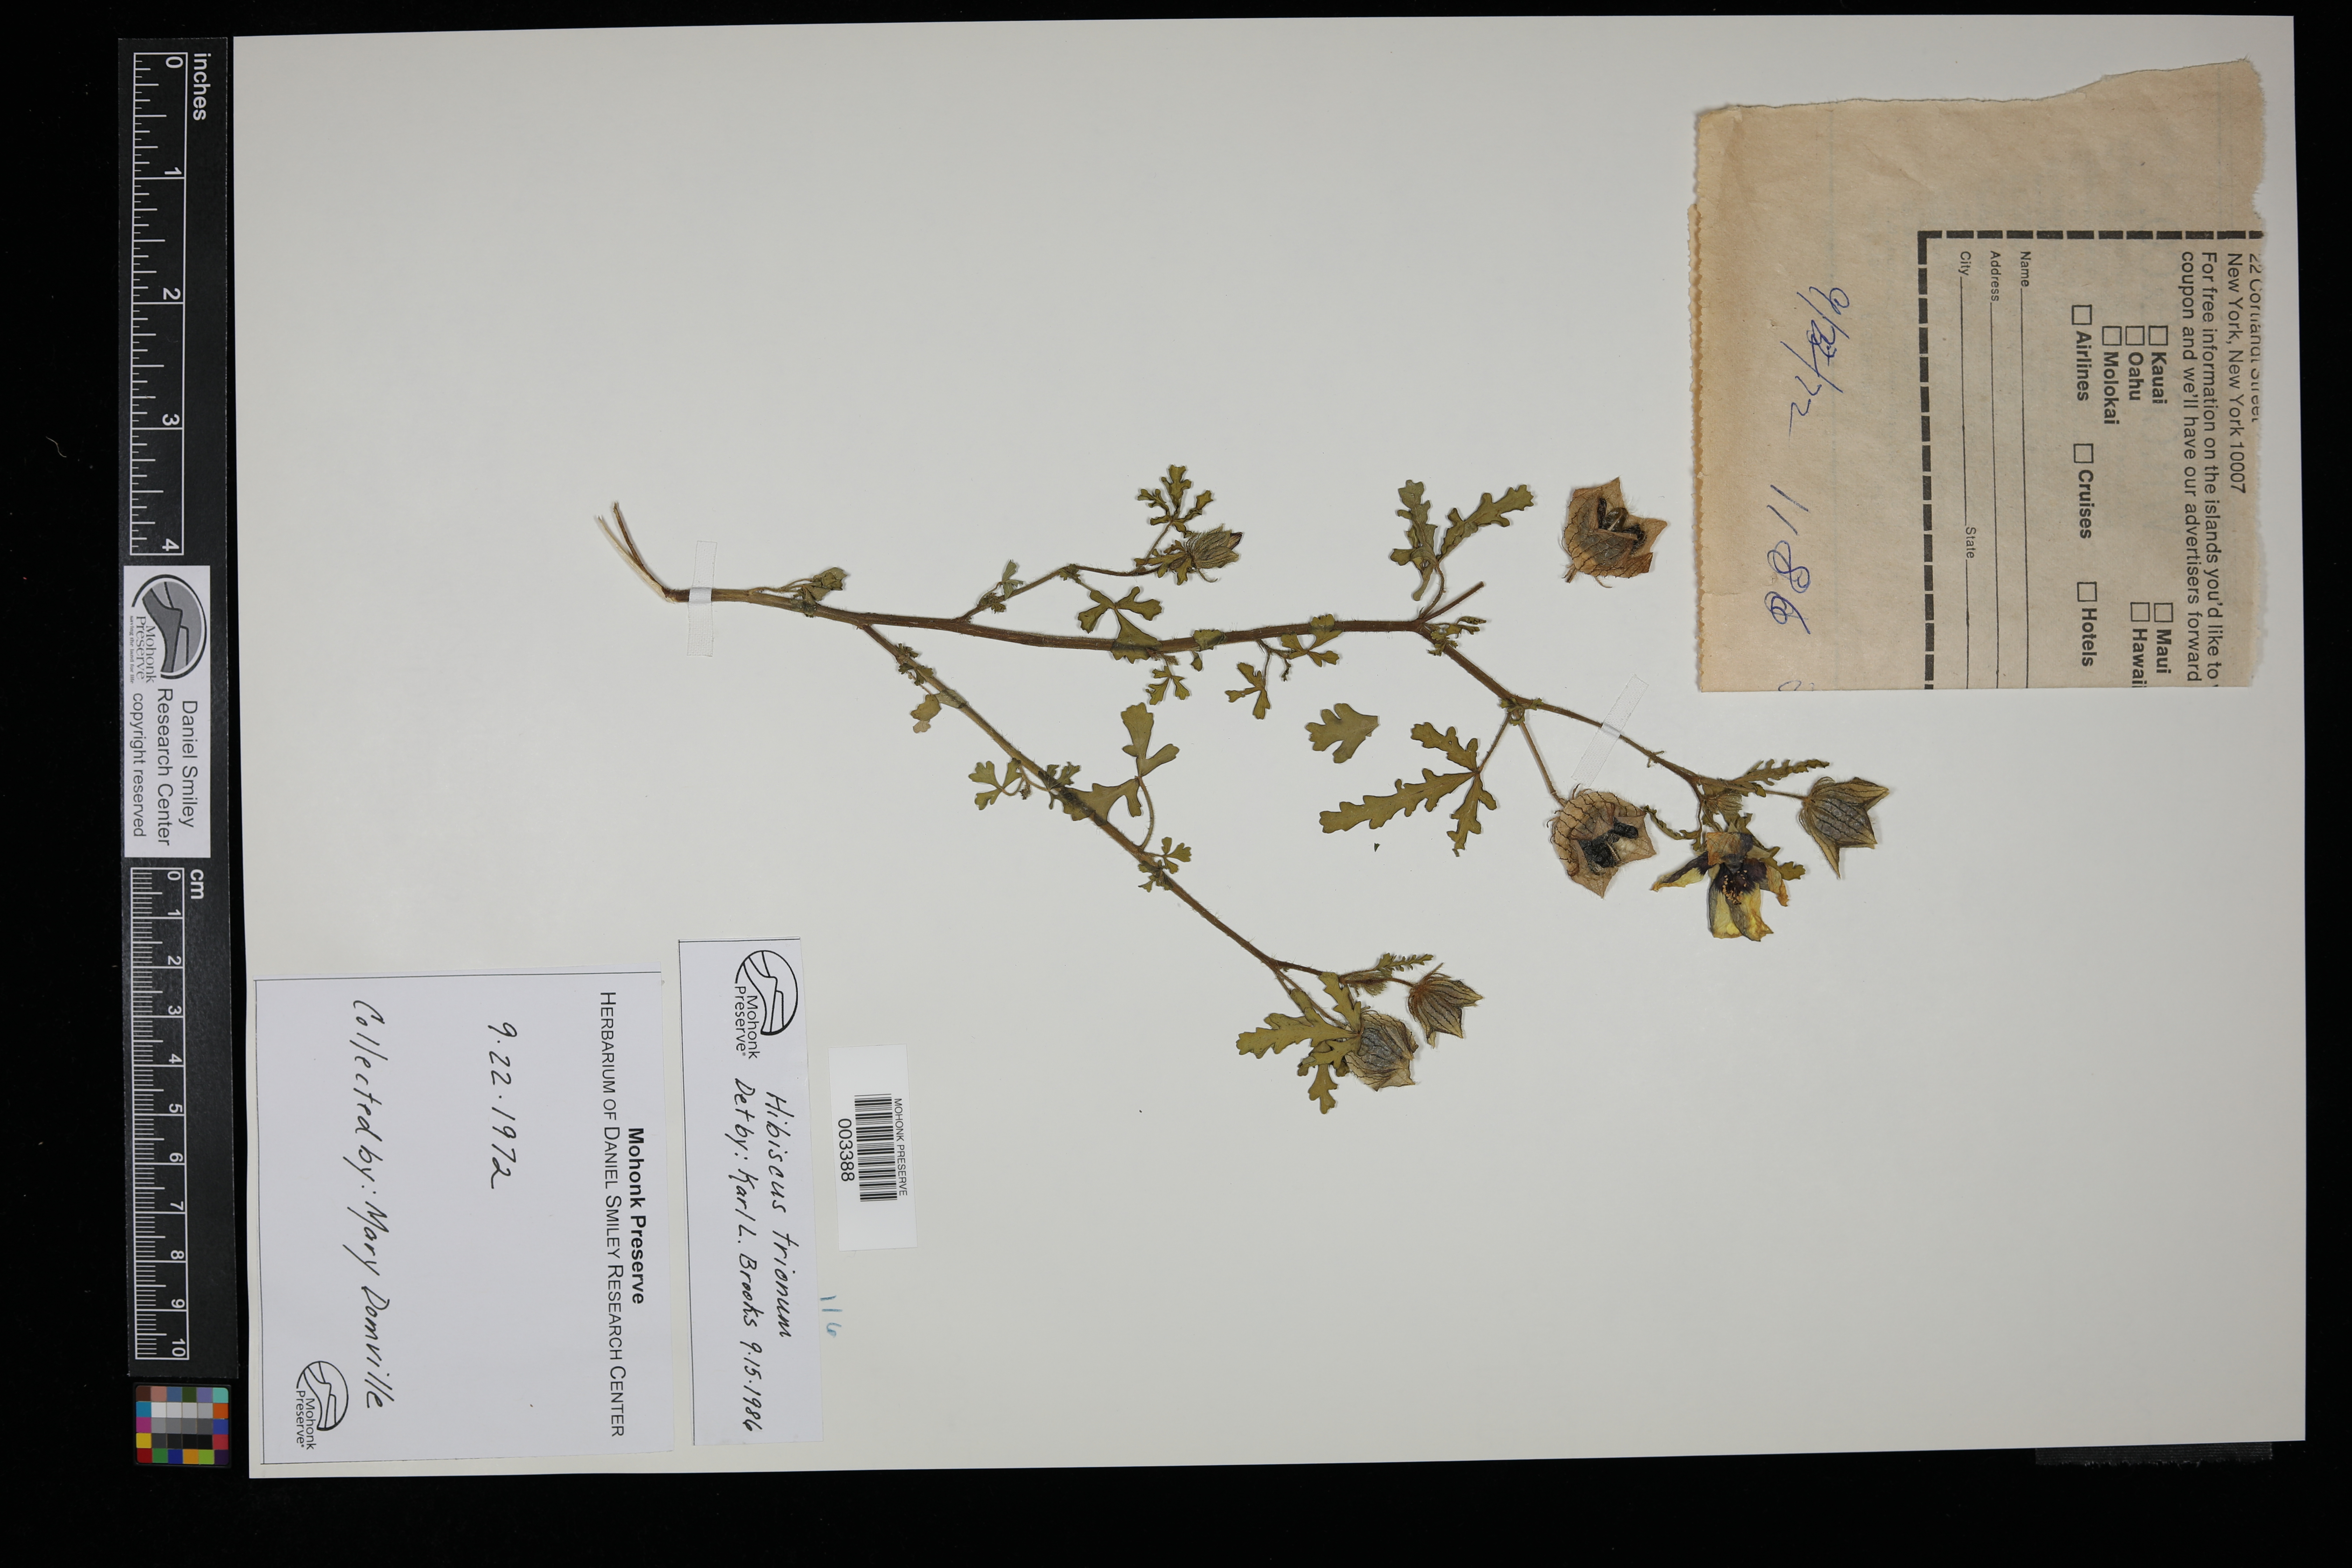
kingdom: Plantae
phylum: Tracheophyta
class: Magnoliopsida
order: Malvales
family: Malvaceae
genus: Hibiscus
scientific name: Hibiscus trionum
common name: Bladder ketmia
